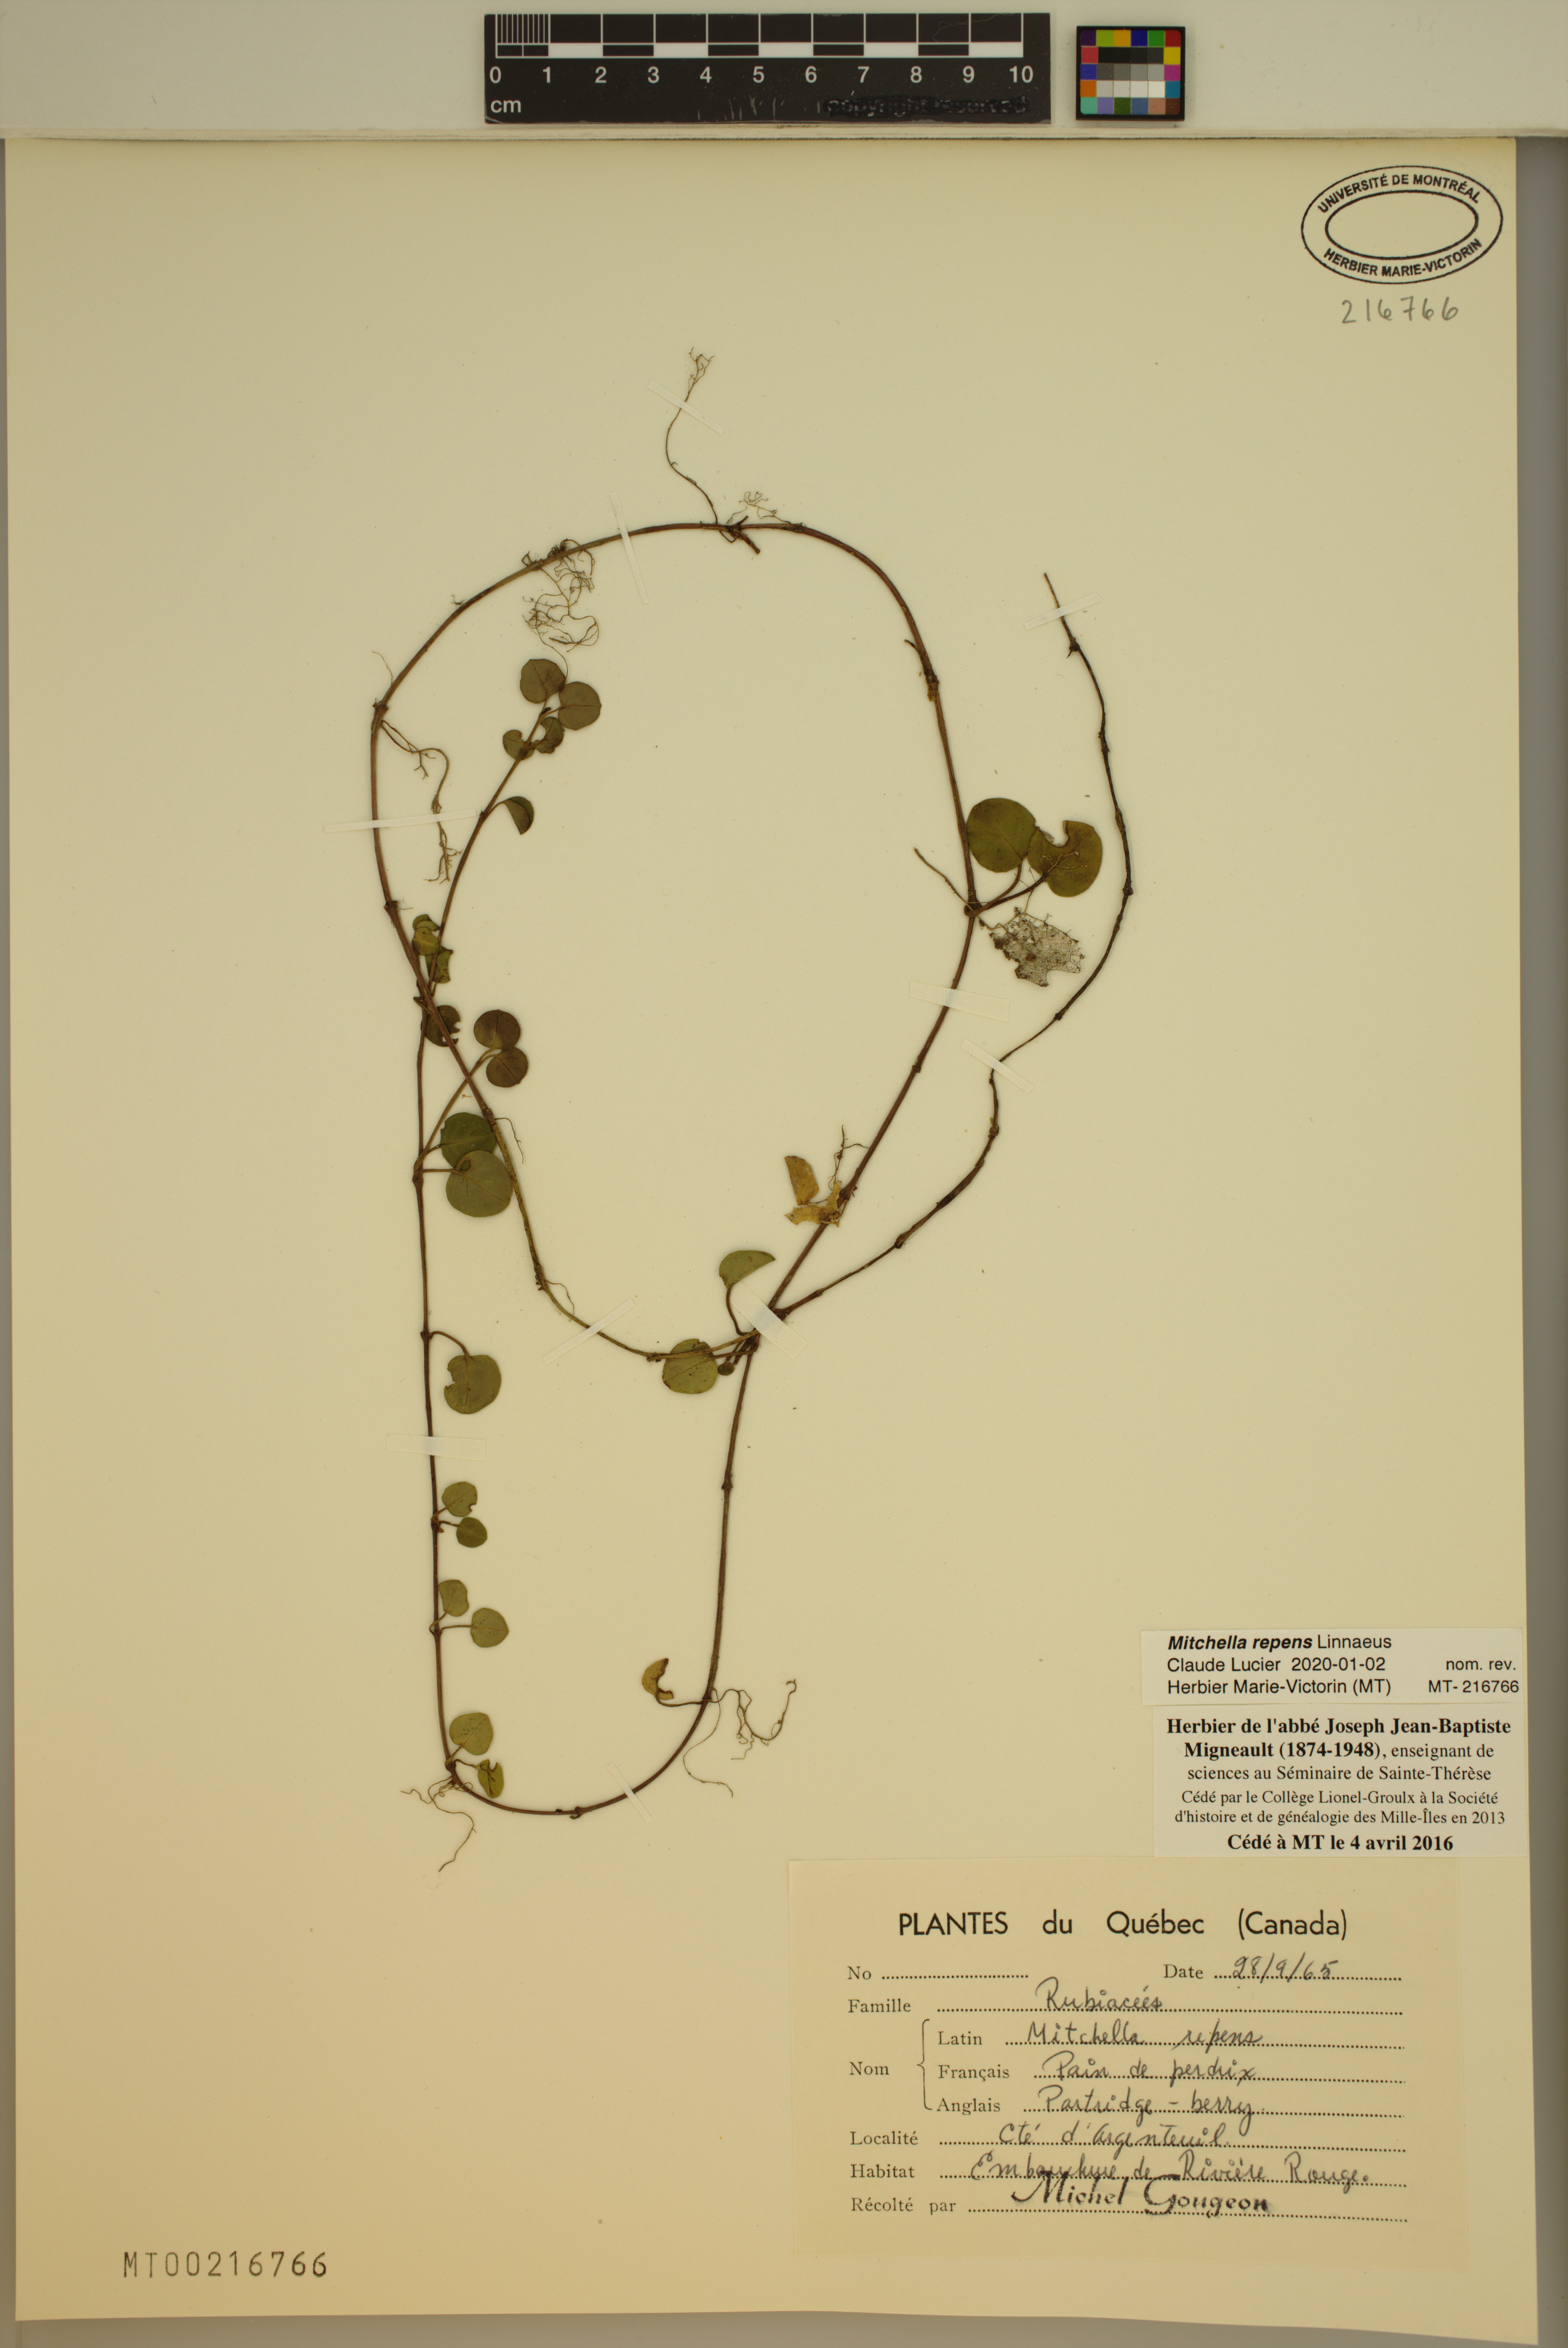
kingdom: Plantae
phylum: Tracheophyta
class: Magnoliopsida
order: Gentianales
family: Rubiaceae
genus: Mitchella
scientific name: Mitchella repens
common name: Partridge-berry
